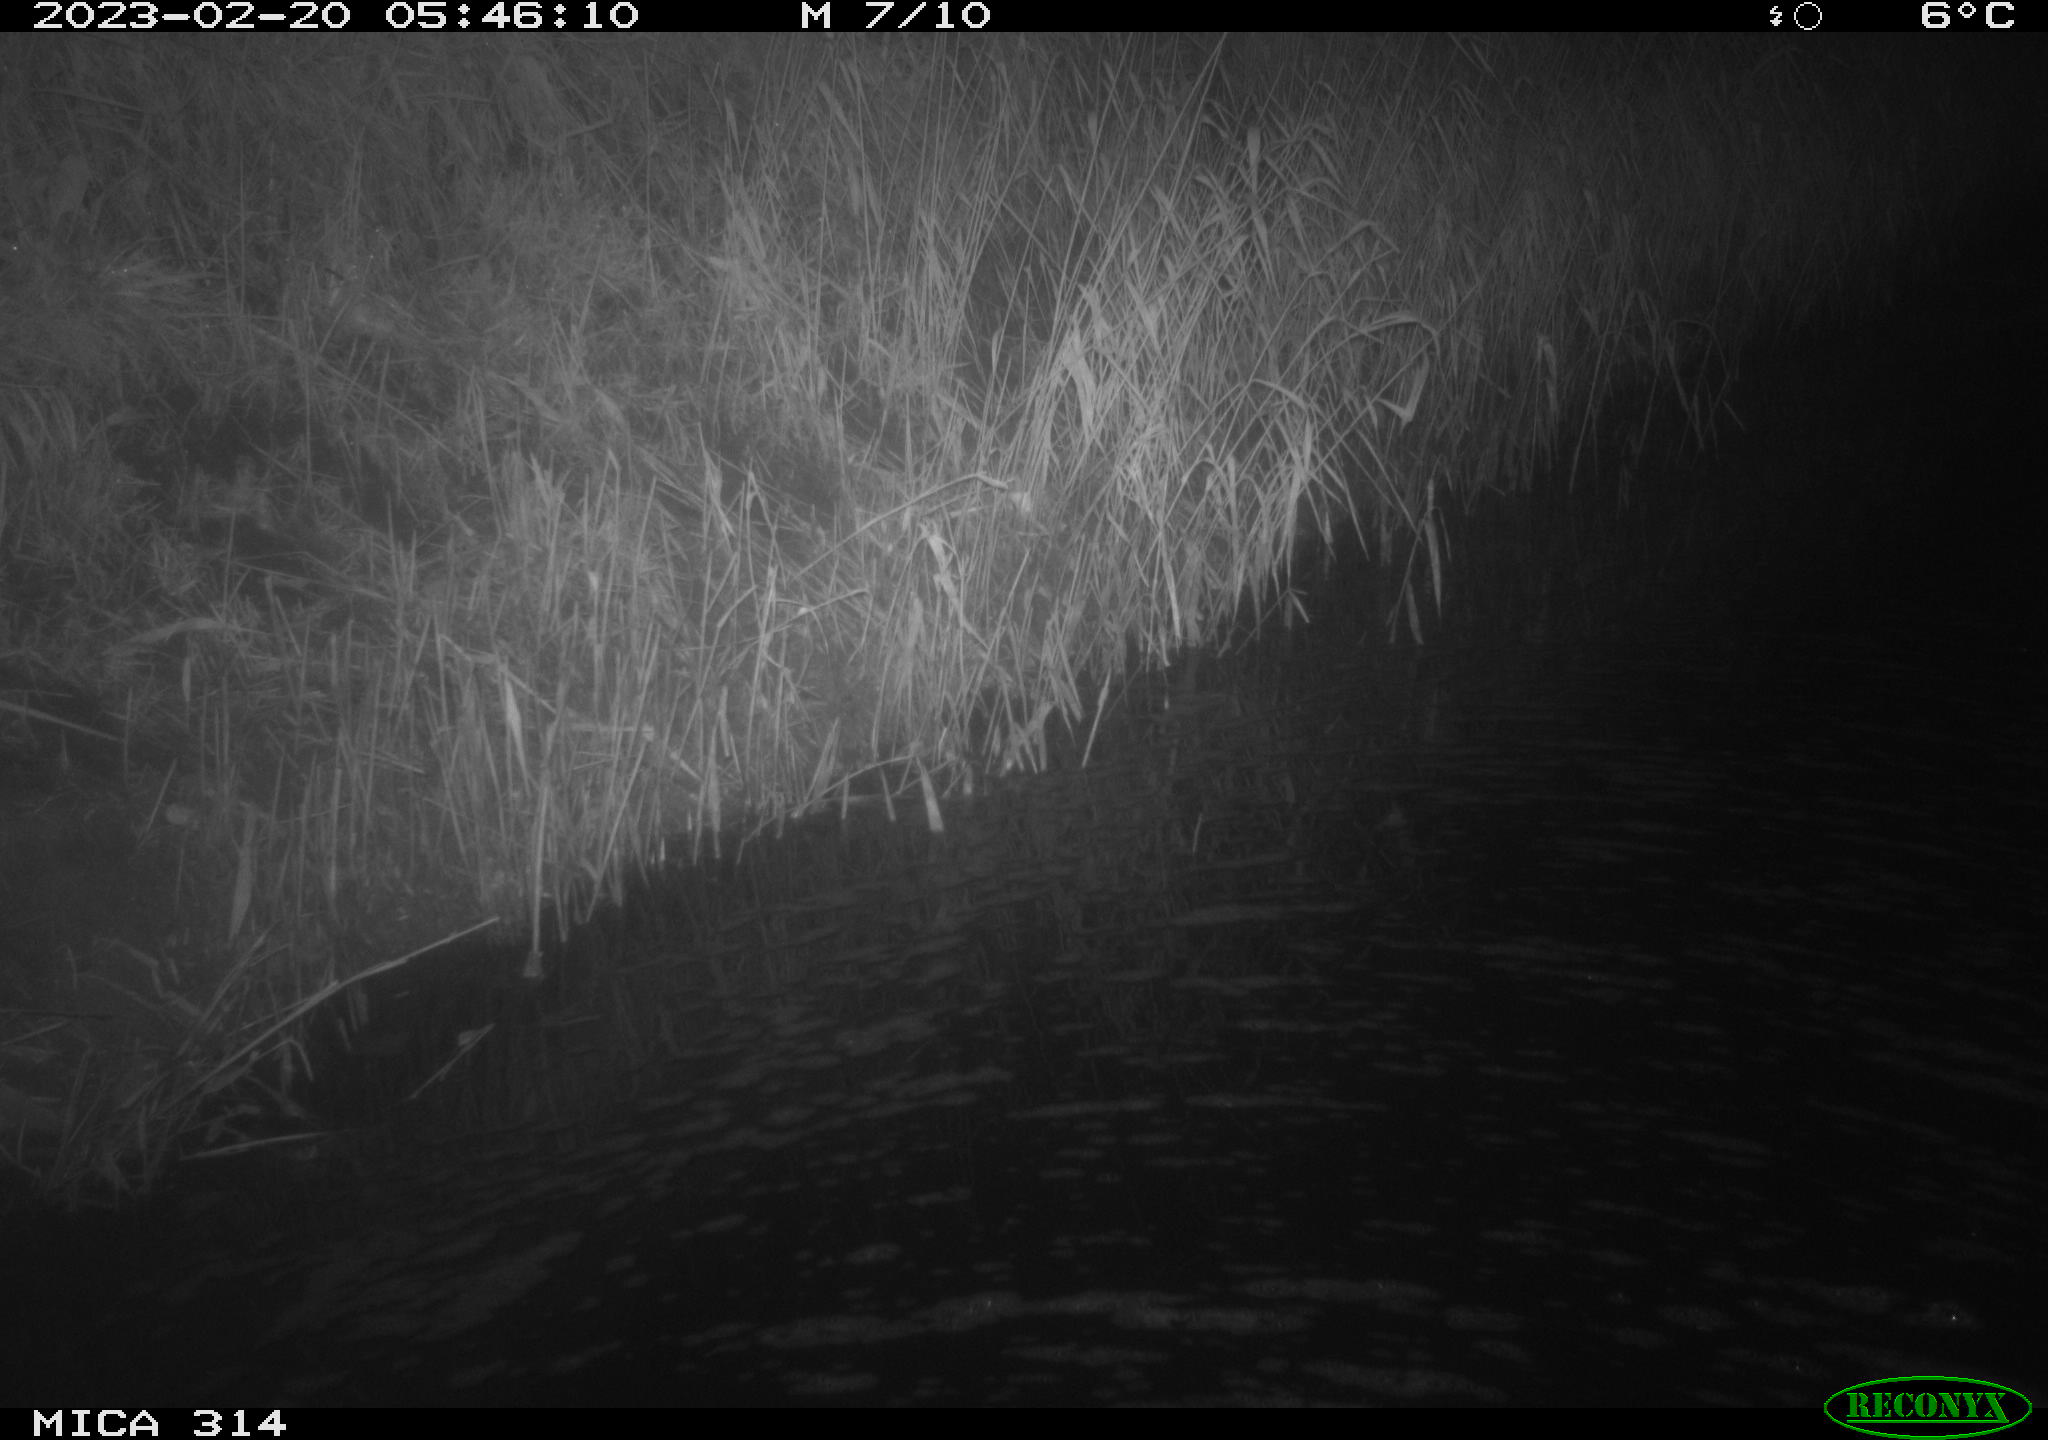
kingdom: Animalia
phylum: Chordata
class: Mammalia
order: Rodentia
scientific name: Rodentia
